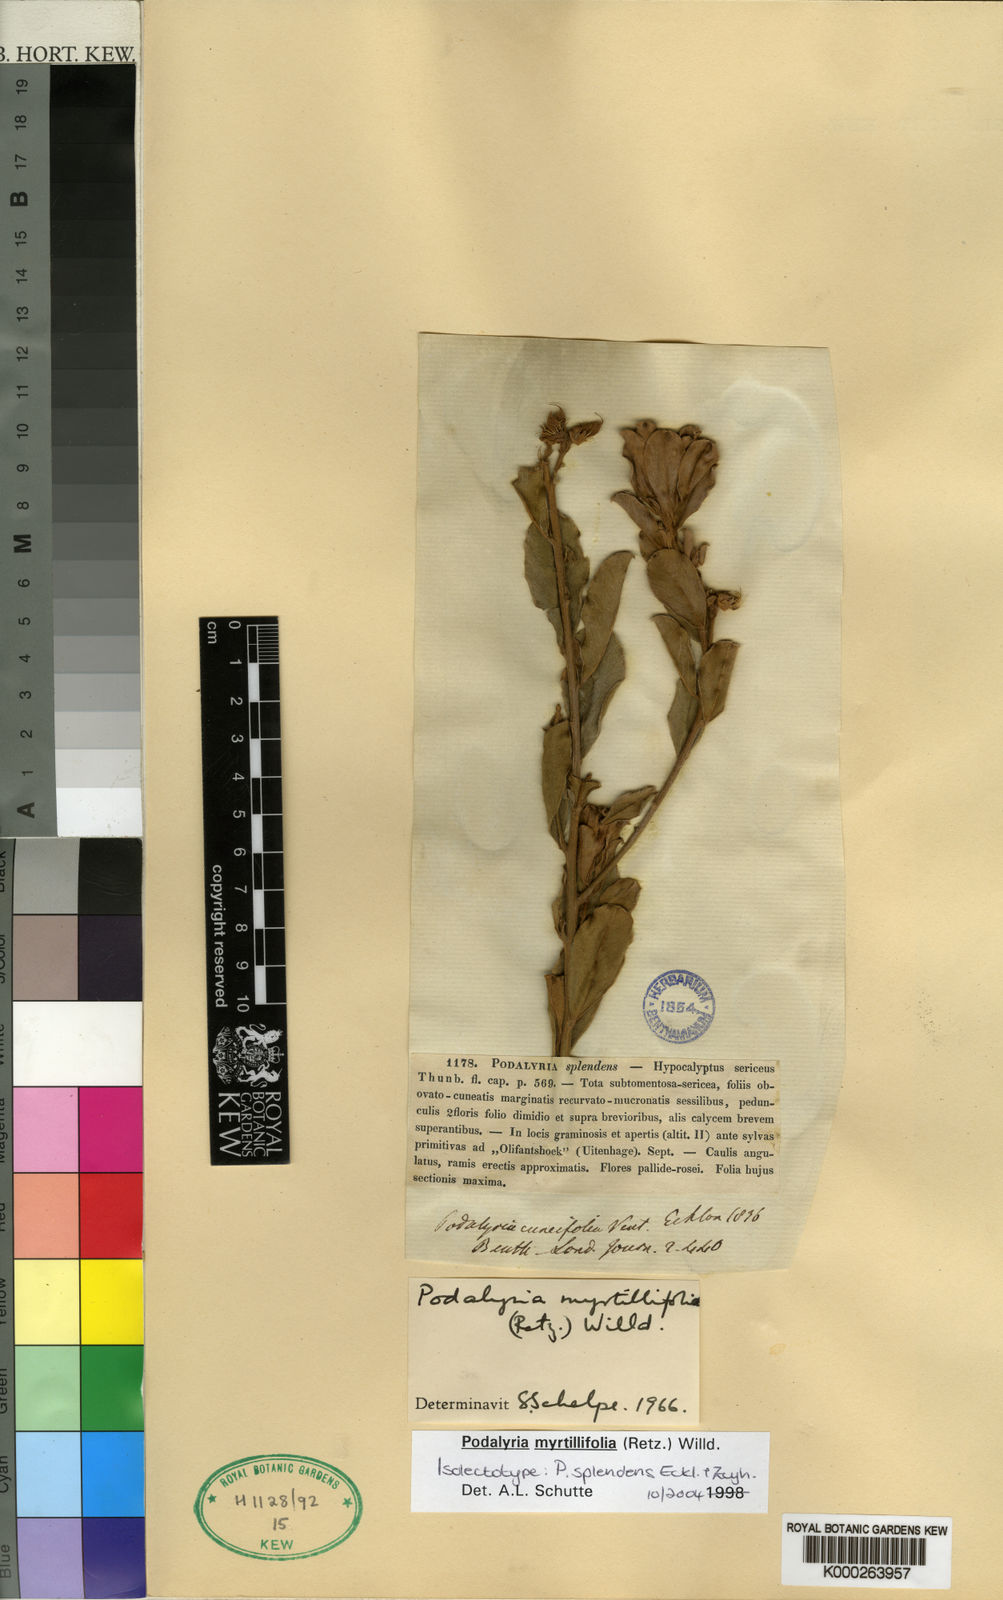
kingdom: Plantae
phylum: Tracheophyta
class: Magnoliopsida
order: Fabales
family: Fabaceae
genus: Podalyria
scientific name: Podalyria myrtillifolia
